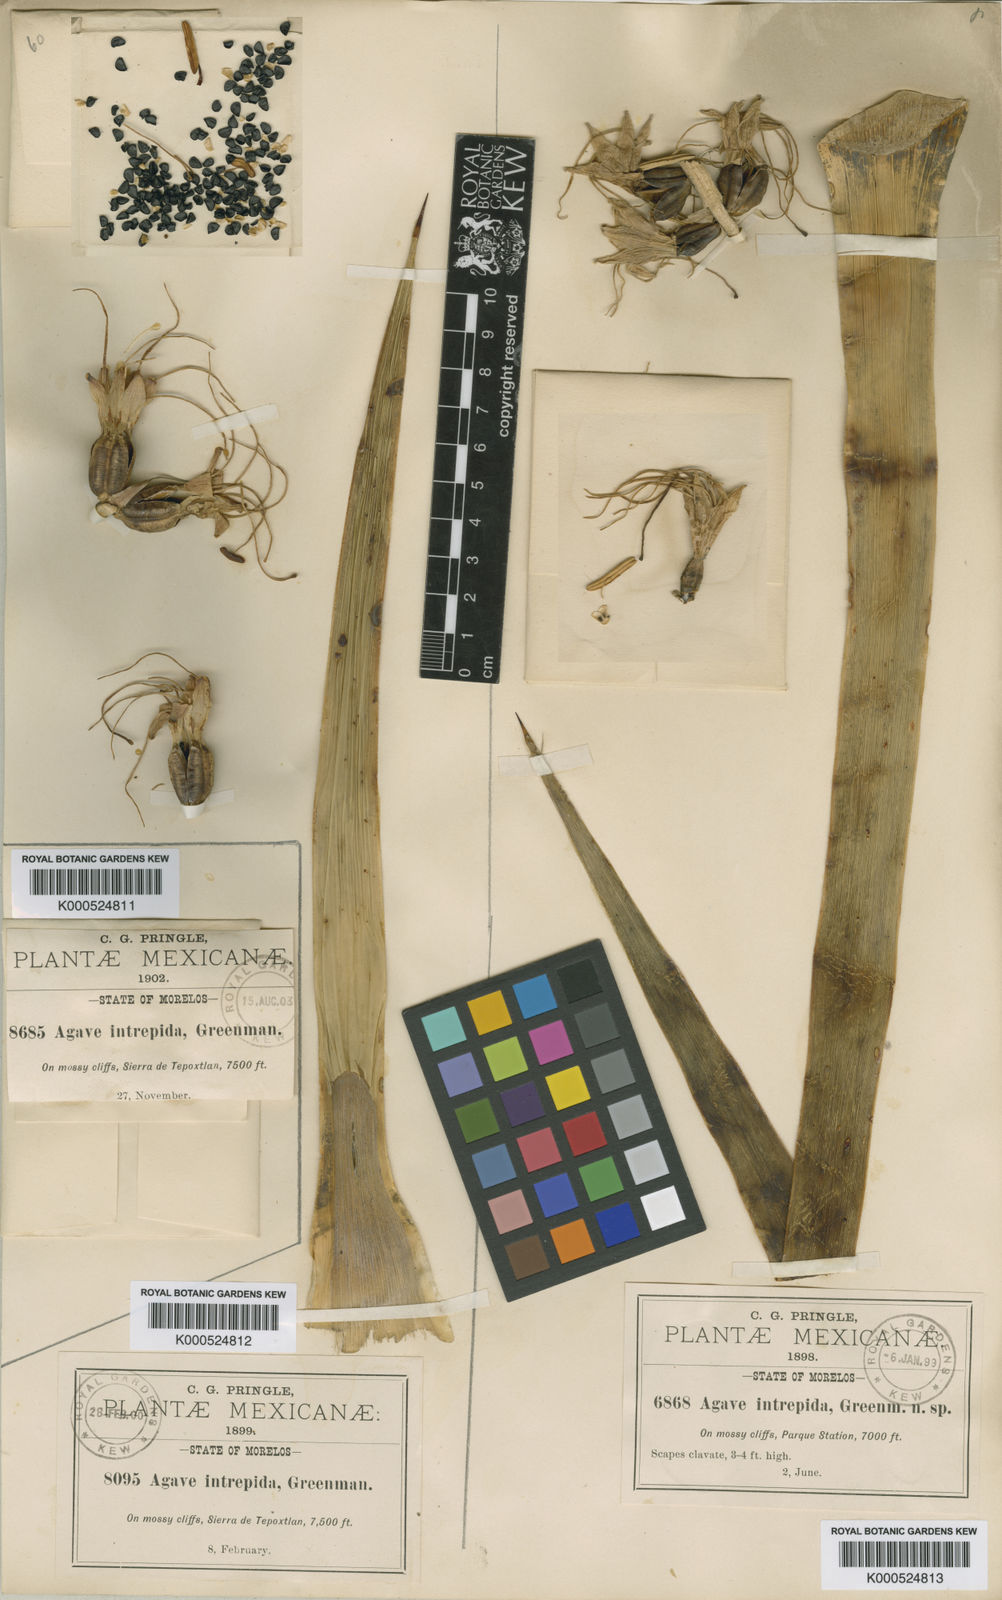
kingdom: Plantae
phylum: Tracheophyta
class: Liliopsida
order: Asparagales
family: Asparagaceae
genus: Agave
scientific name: Agave dealbata
